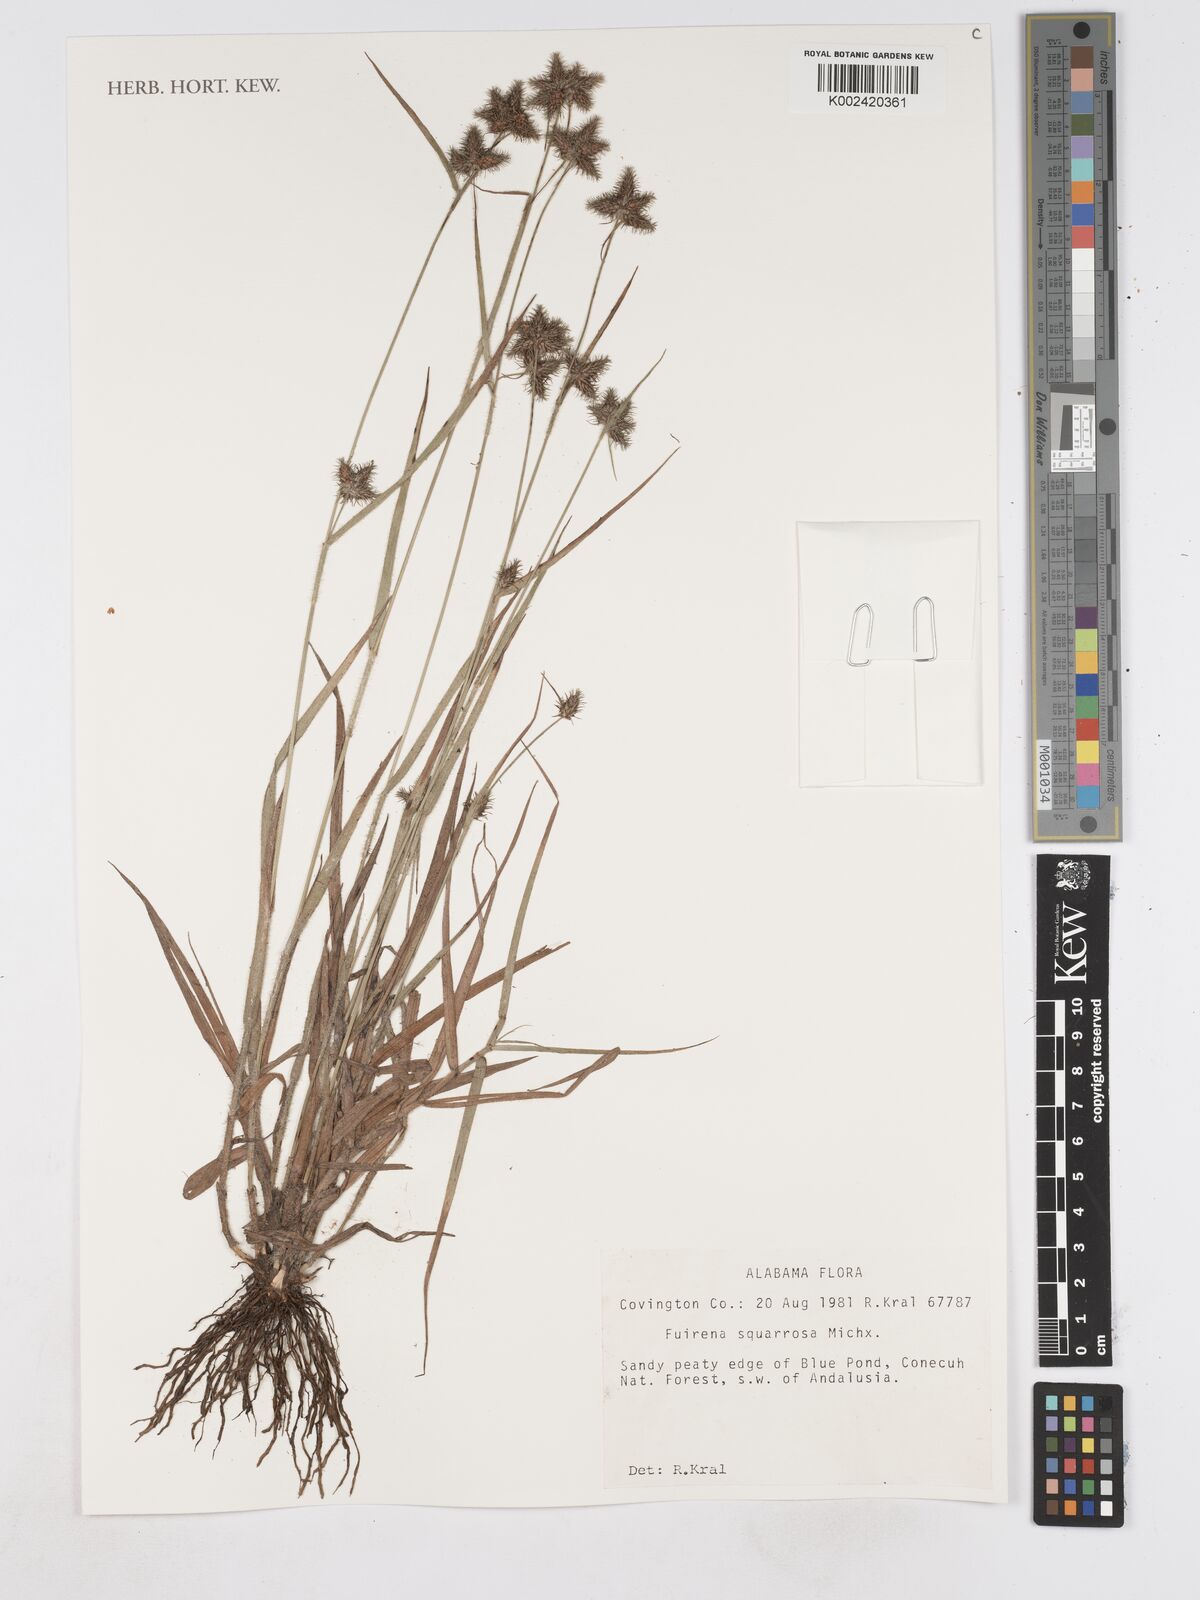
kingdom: Plantae
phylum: Tracheophyta
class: Liliopsida
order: Poales
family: Cyperaceae
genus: Fuirena
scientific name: Fuirena squarrosa
